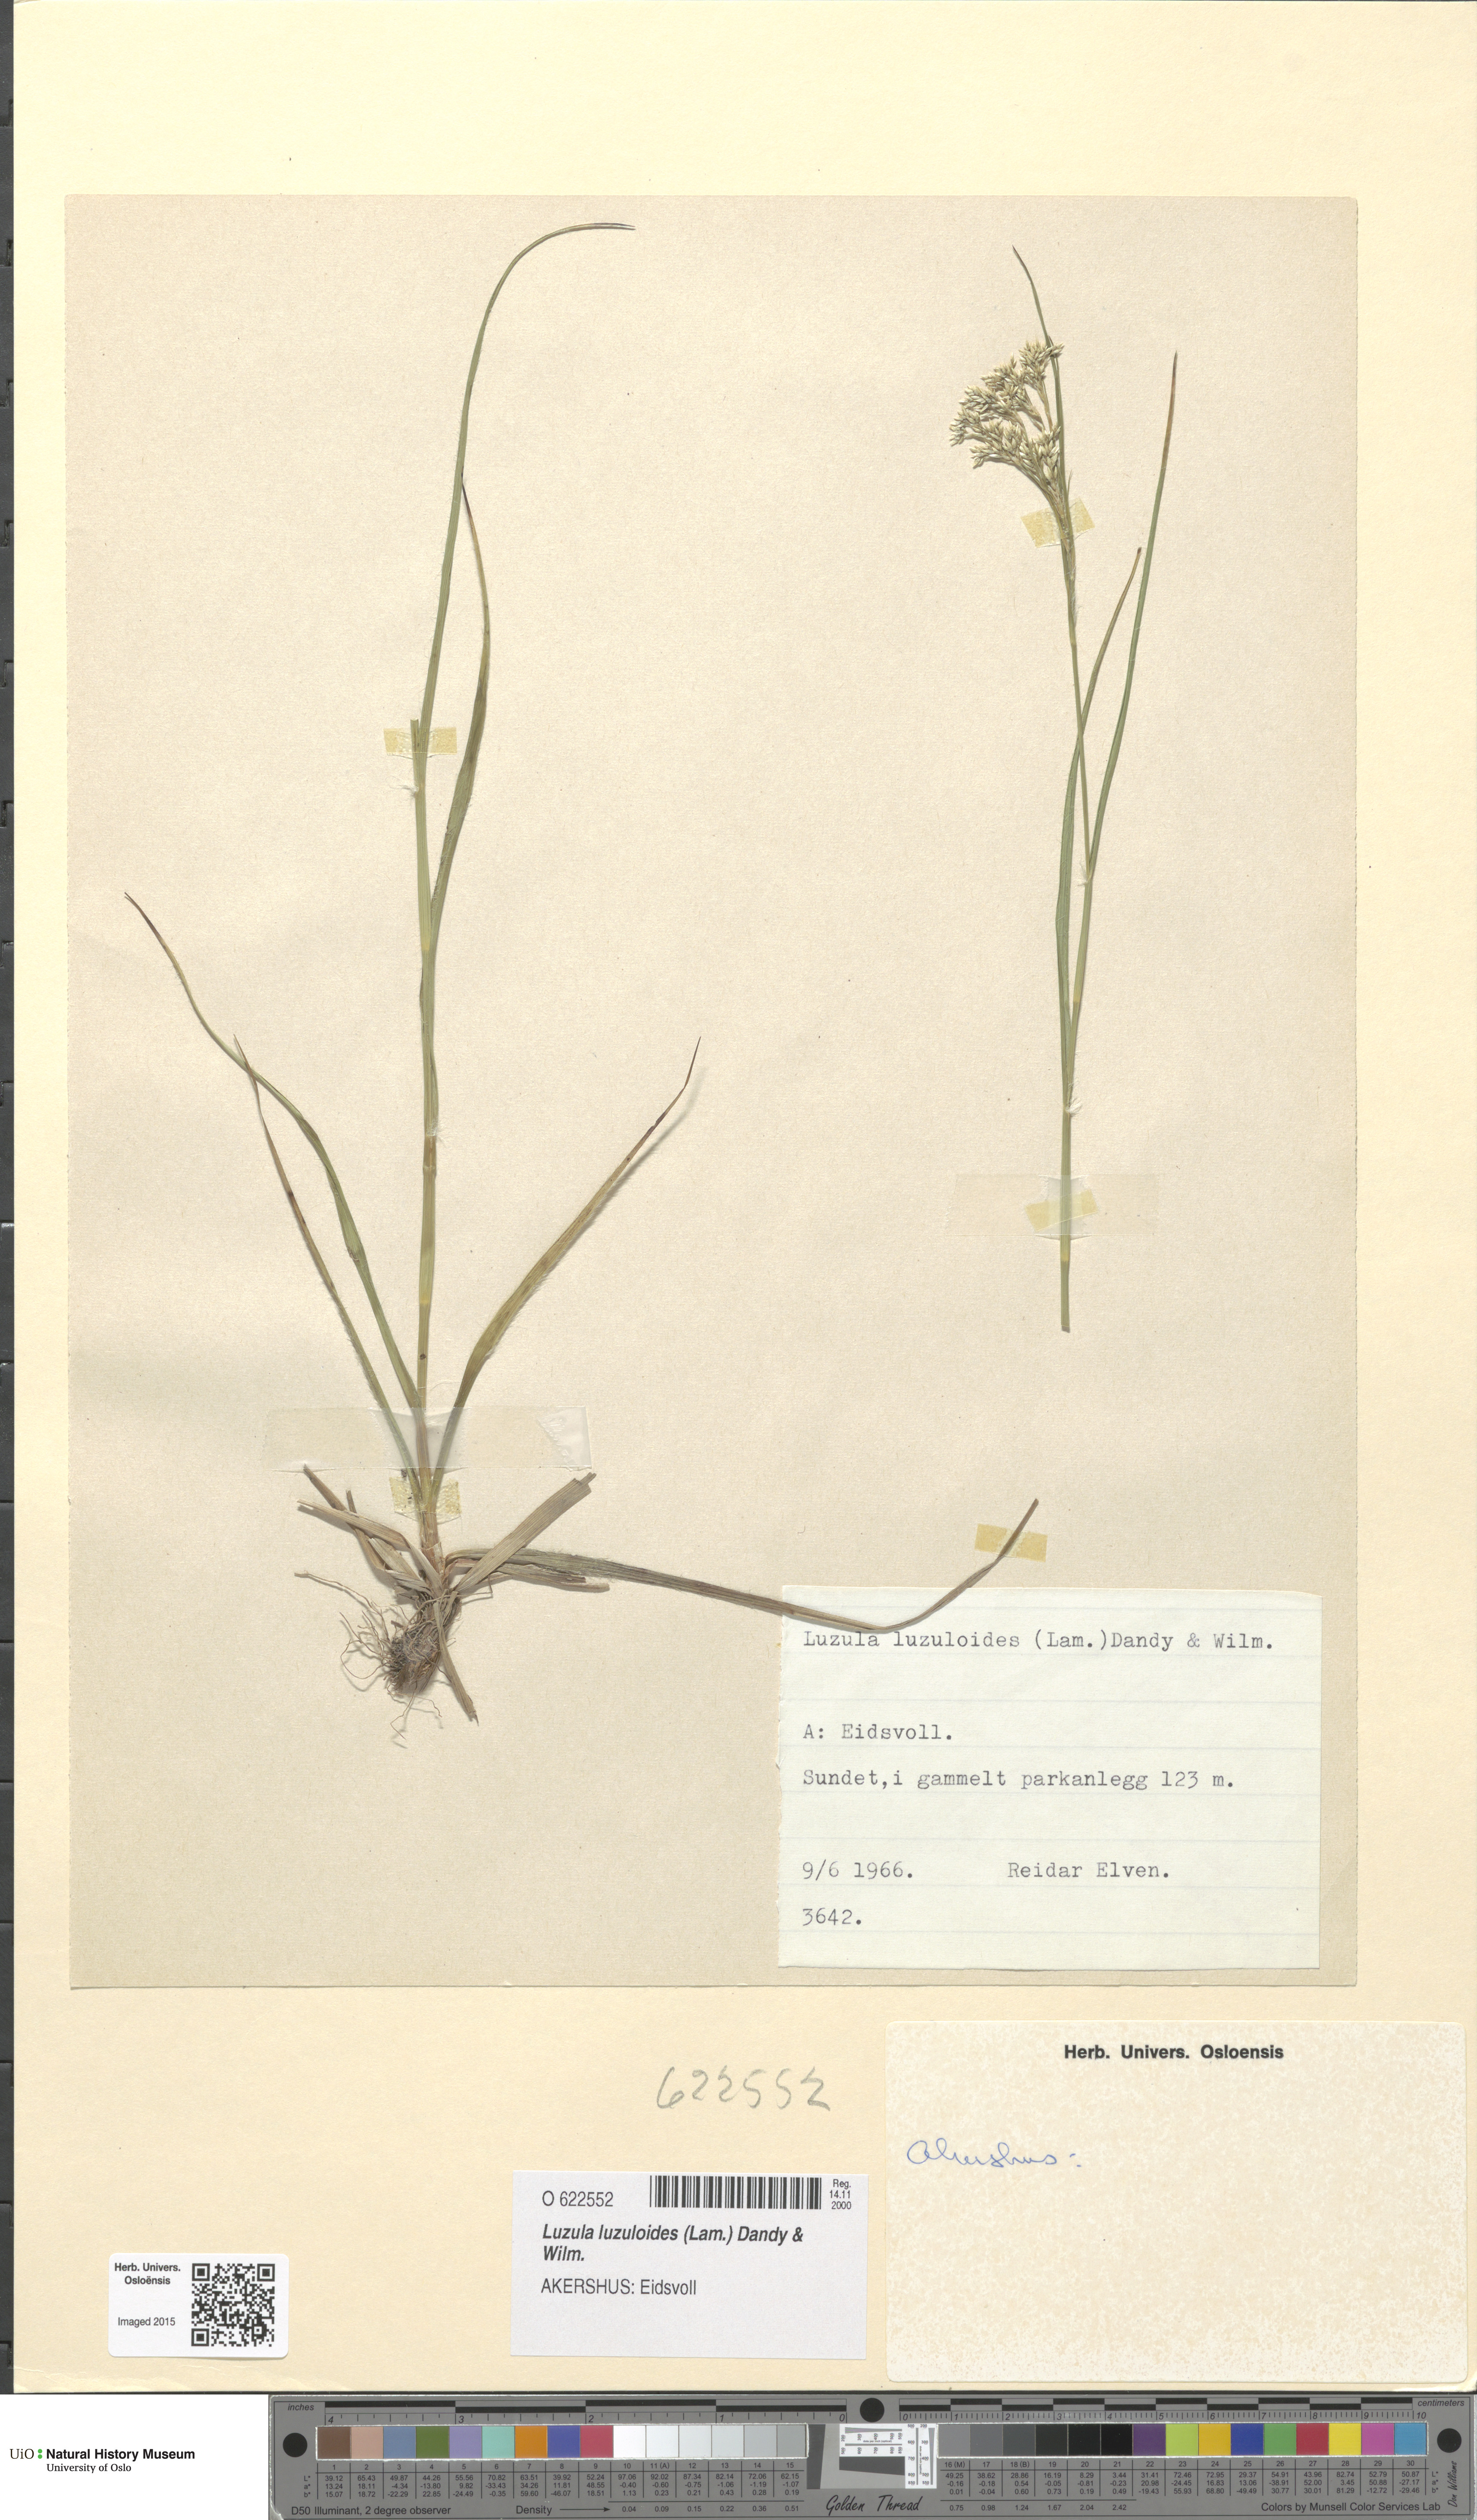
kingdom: Plantae
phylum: Tracheophyta
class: Liliopsida
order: Poales
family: Juncaceae
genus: Luzula
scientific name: Luzula luzuloides
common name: White wood-rush
